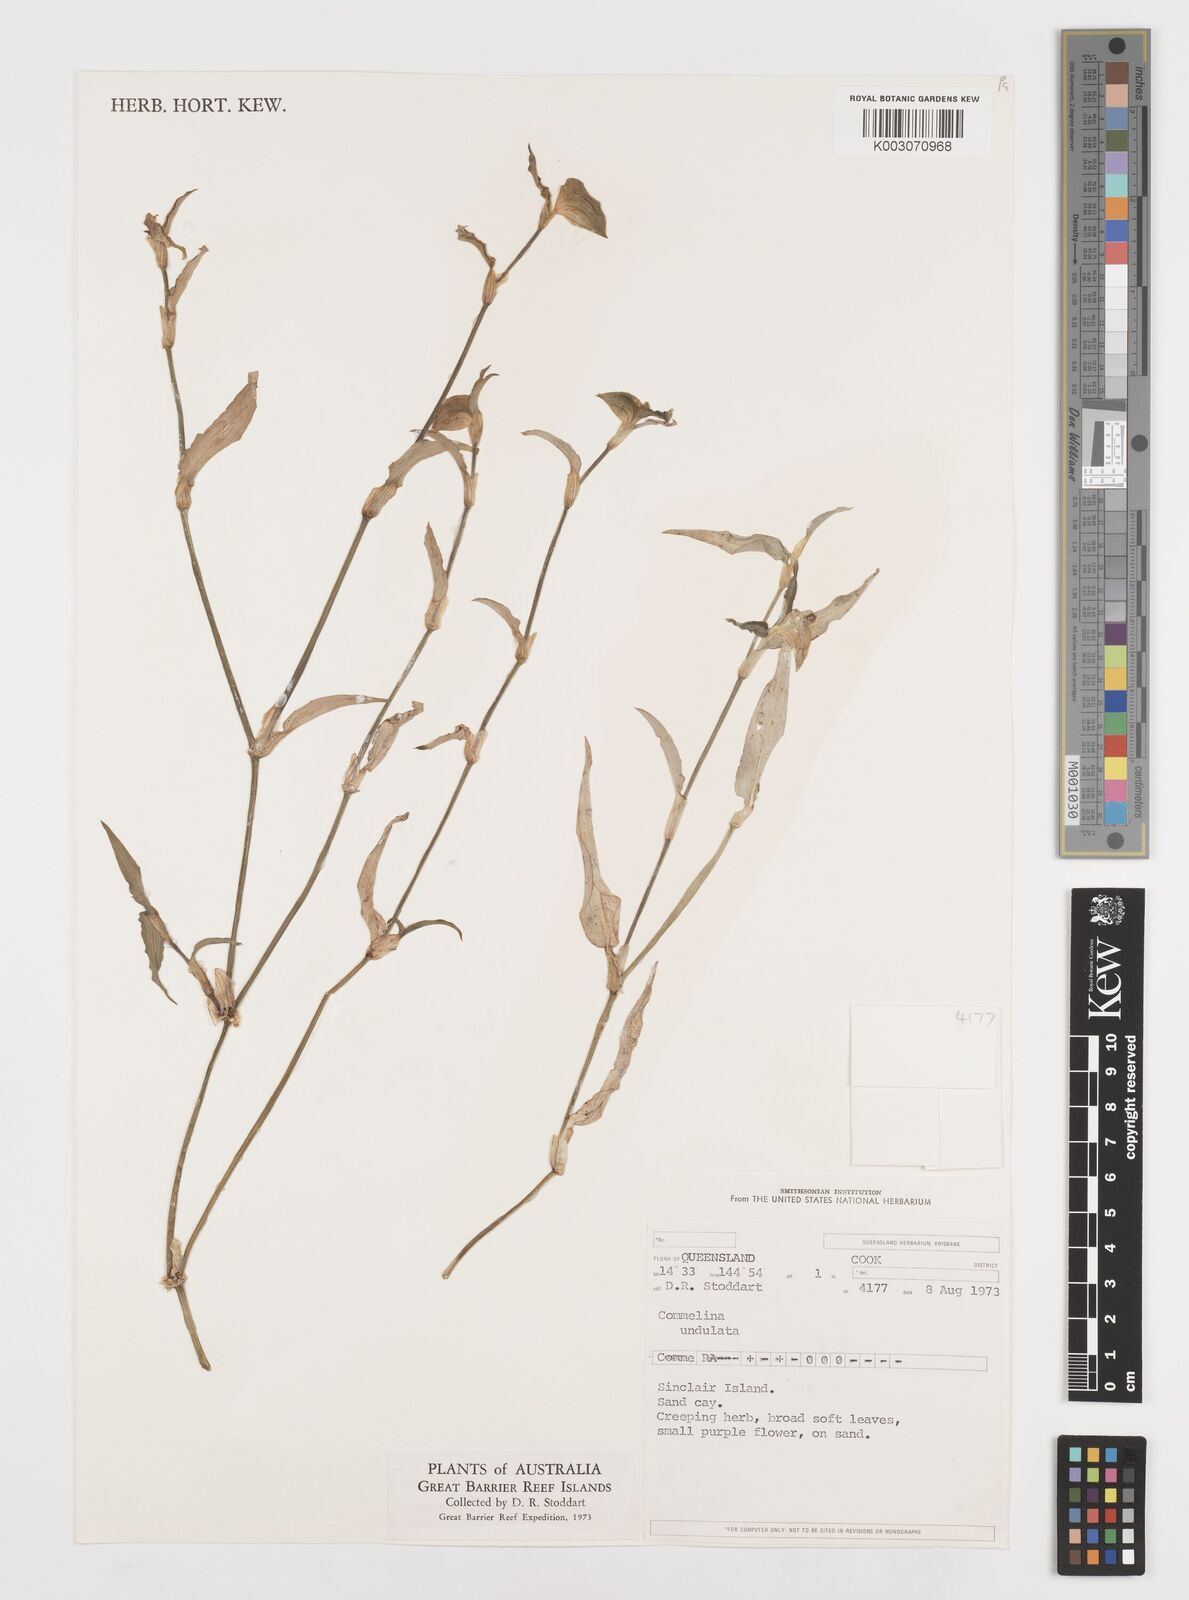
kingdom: Plantae
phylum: Tracheophyta
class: Liliopsida
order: Commelinales
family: Commelinaceae
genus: Commelina
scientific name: Commelina undulata
